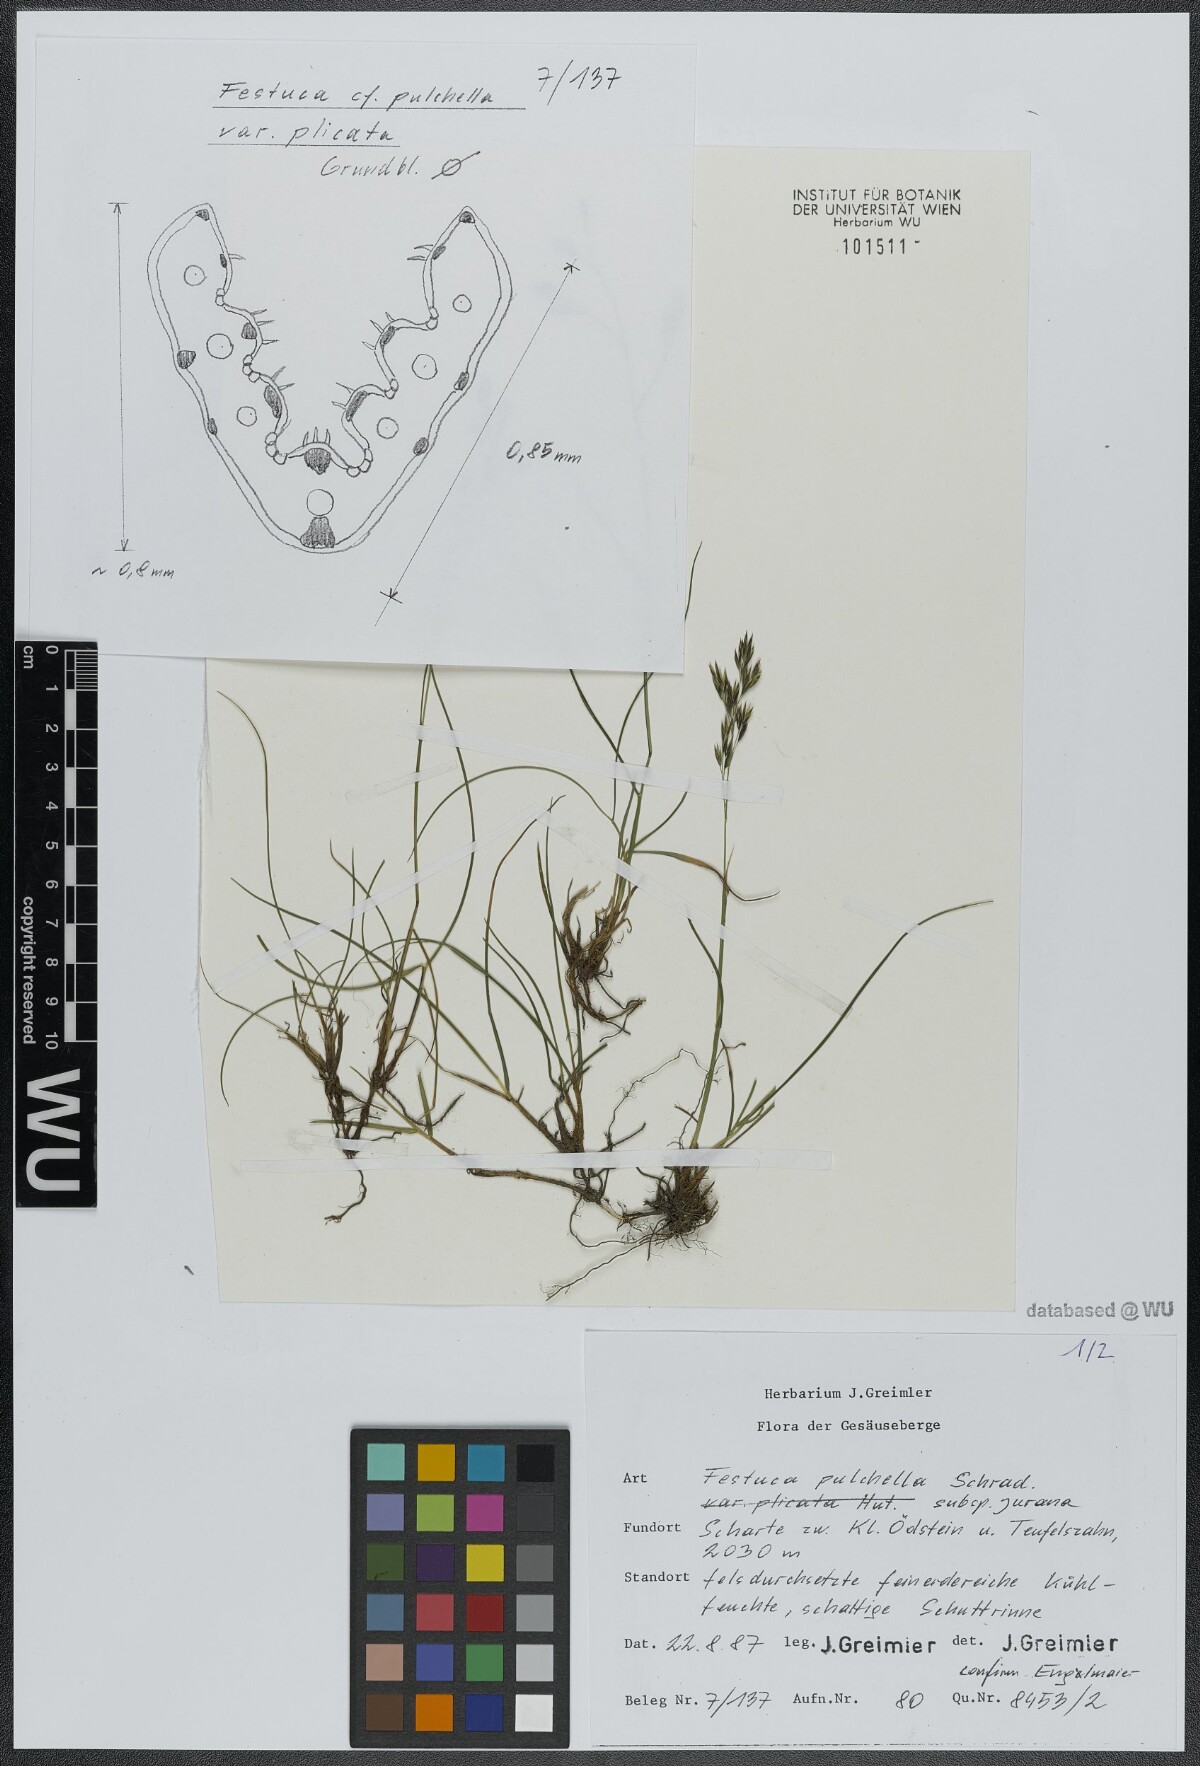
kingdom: Plantae
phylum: Tracheophyta
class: Liliopsida
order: Poales
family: Poaceae
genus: Festuca
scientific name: Festuca pulchella
